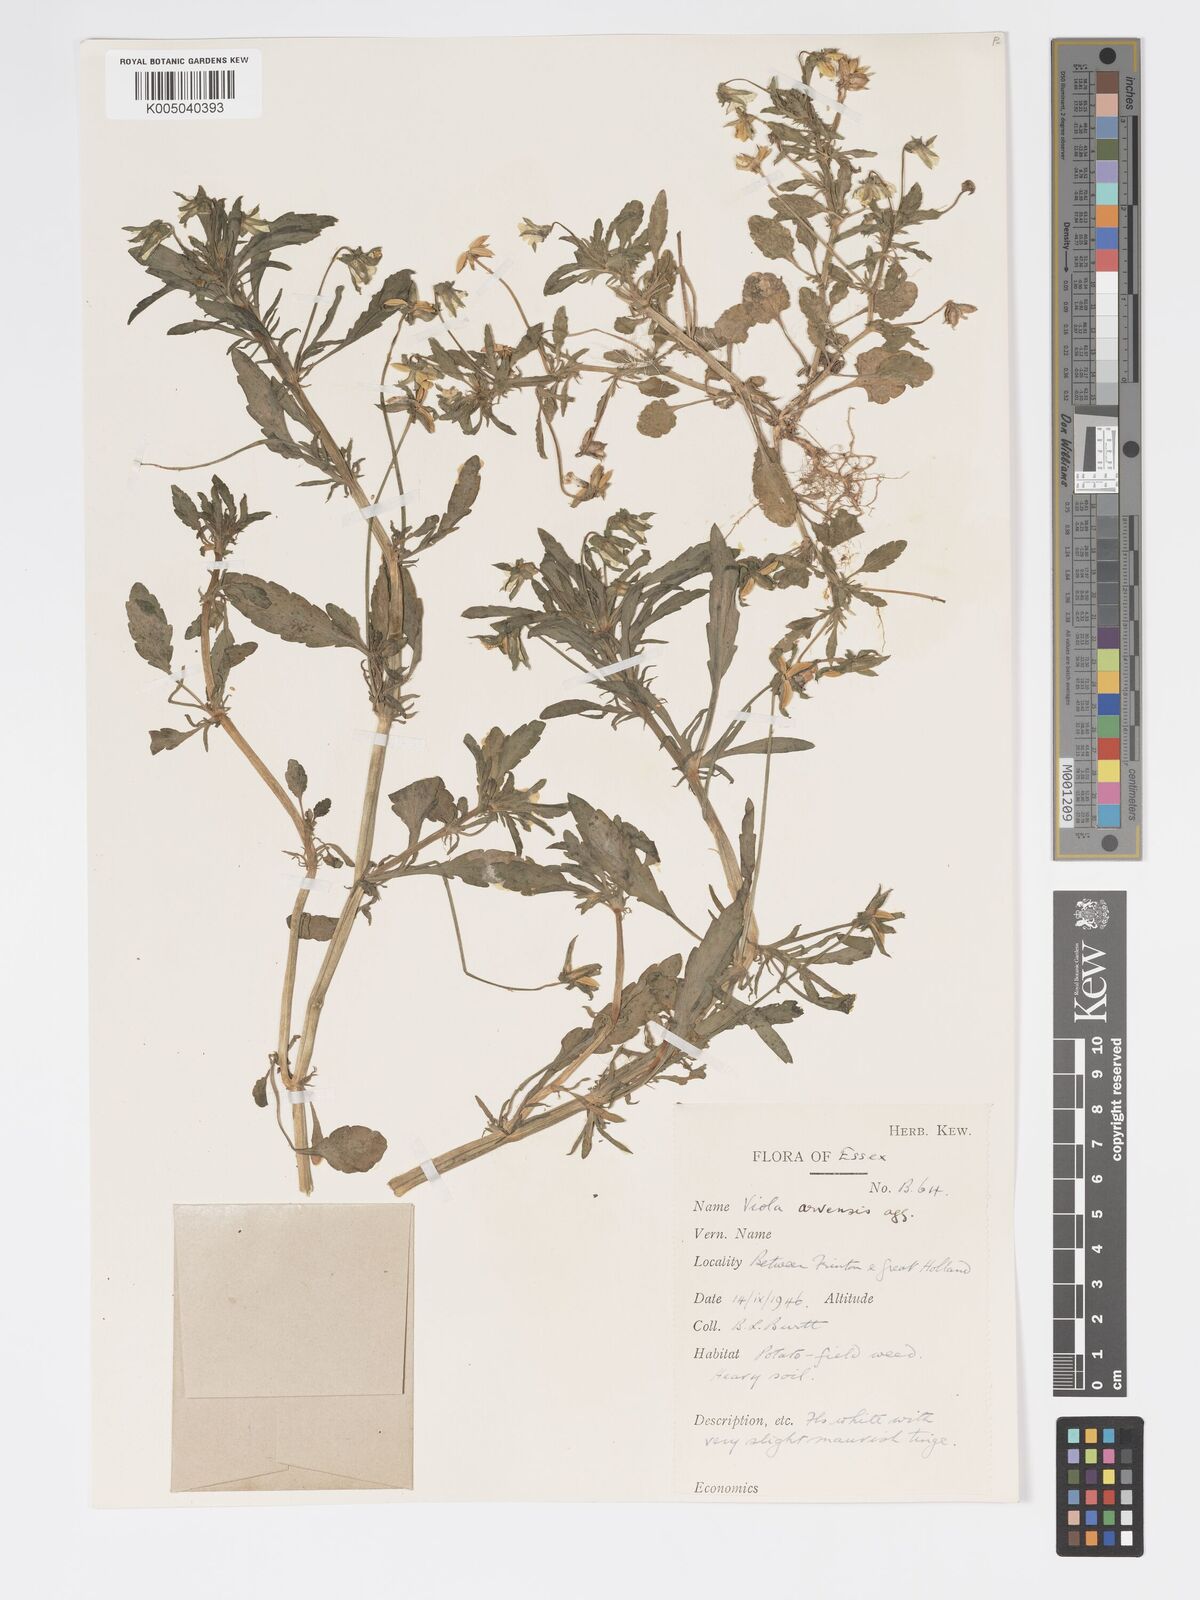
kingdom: Plantae
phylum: Tracheophyta
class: Magnoliopsida
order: Malpighiales
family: Violaceae
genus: Viola
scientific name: Viola arvensis
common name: Field pansy
